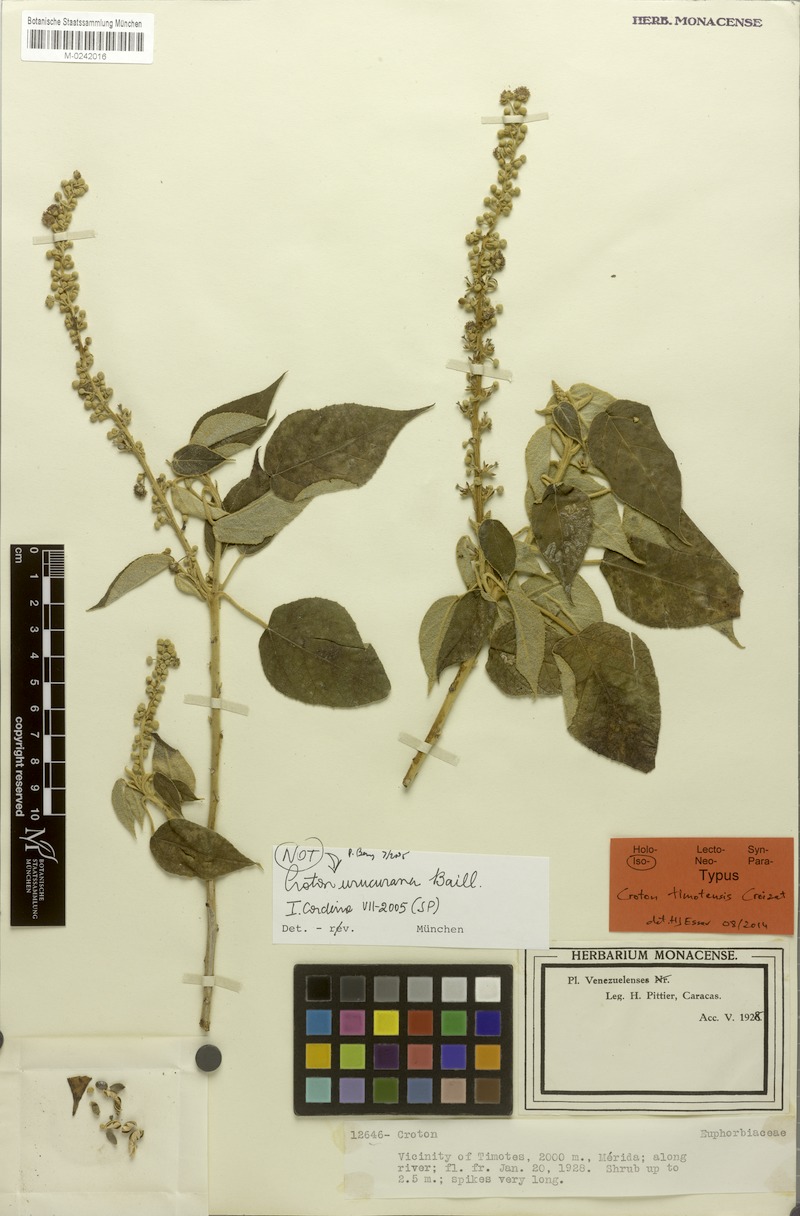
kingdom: Plantae
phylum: Tracheophyta
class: Magnoliopsida
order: Malpighiales
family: Euphorbiaceae
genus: Croton
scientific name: Croton timotensis
